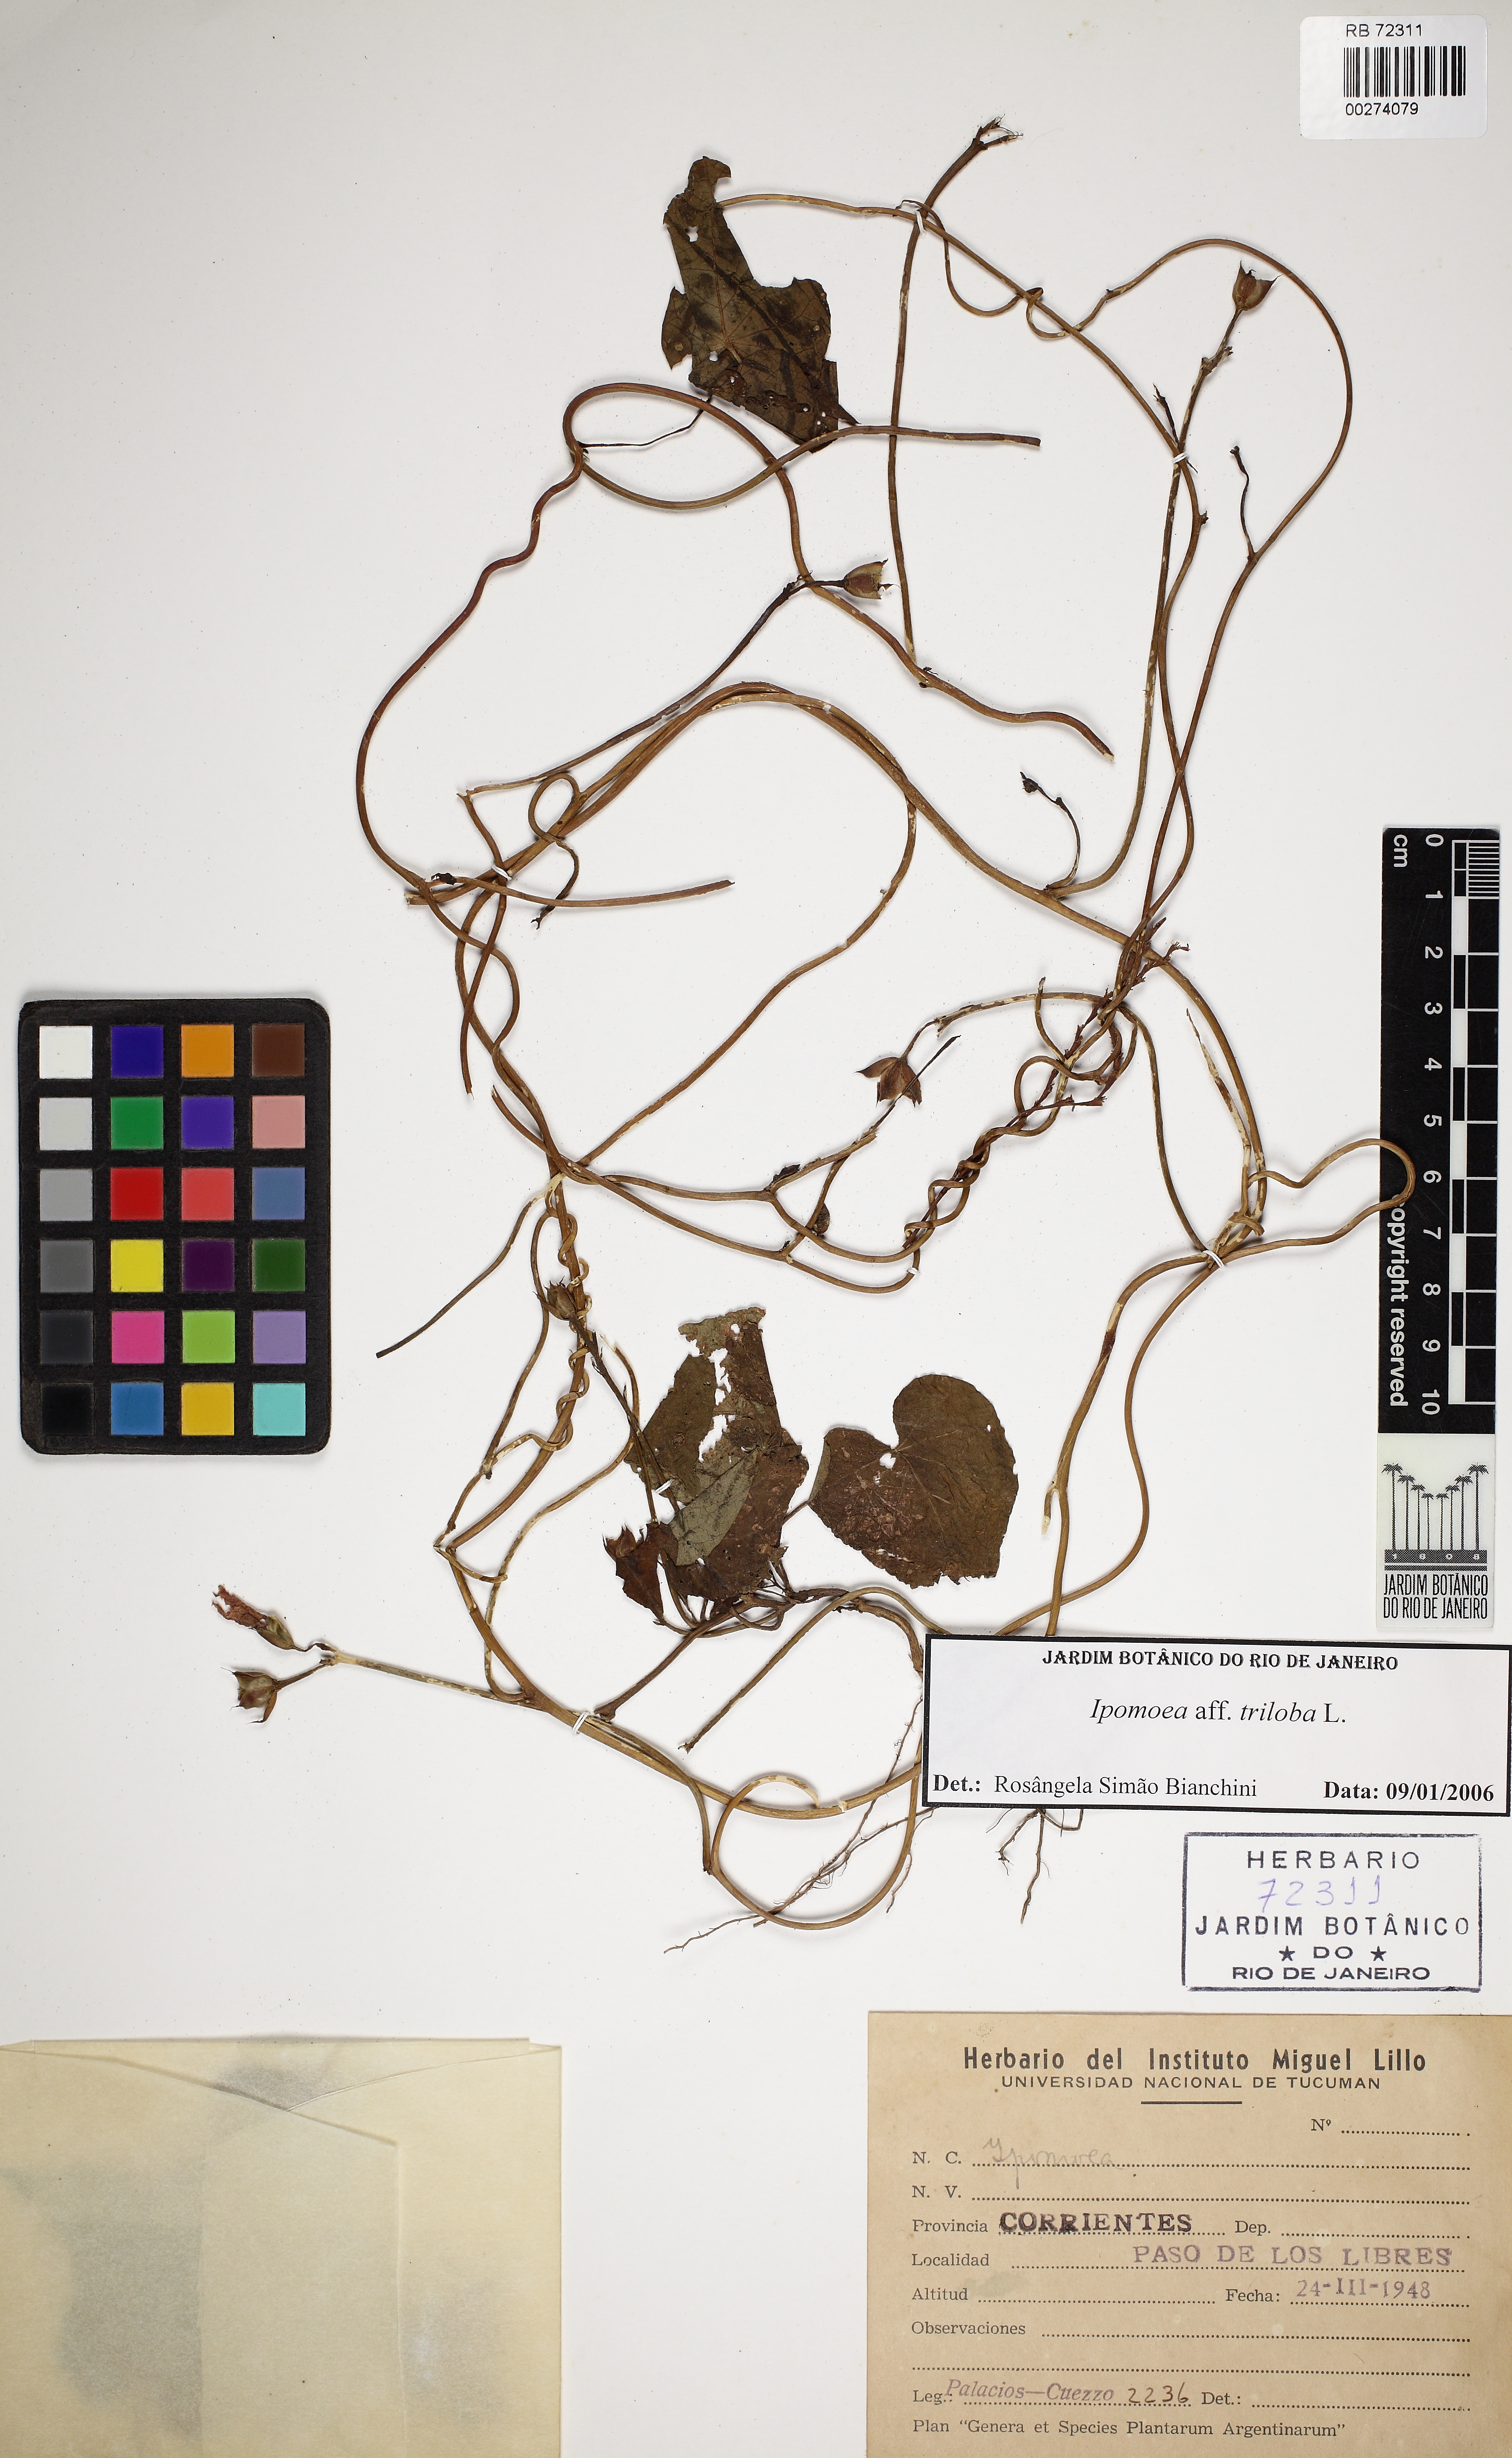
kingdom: Plantae
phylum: Tracheophyta
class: Magnoliopsida
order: Solanales
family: Convolvulaceae
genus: Ipomoea
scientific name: Ipomoea triloba
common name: Little-bell
